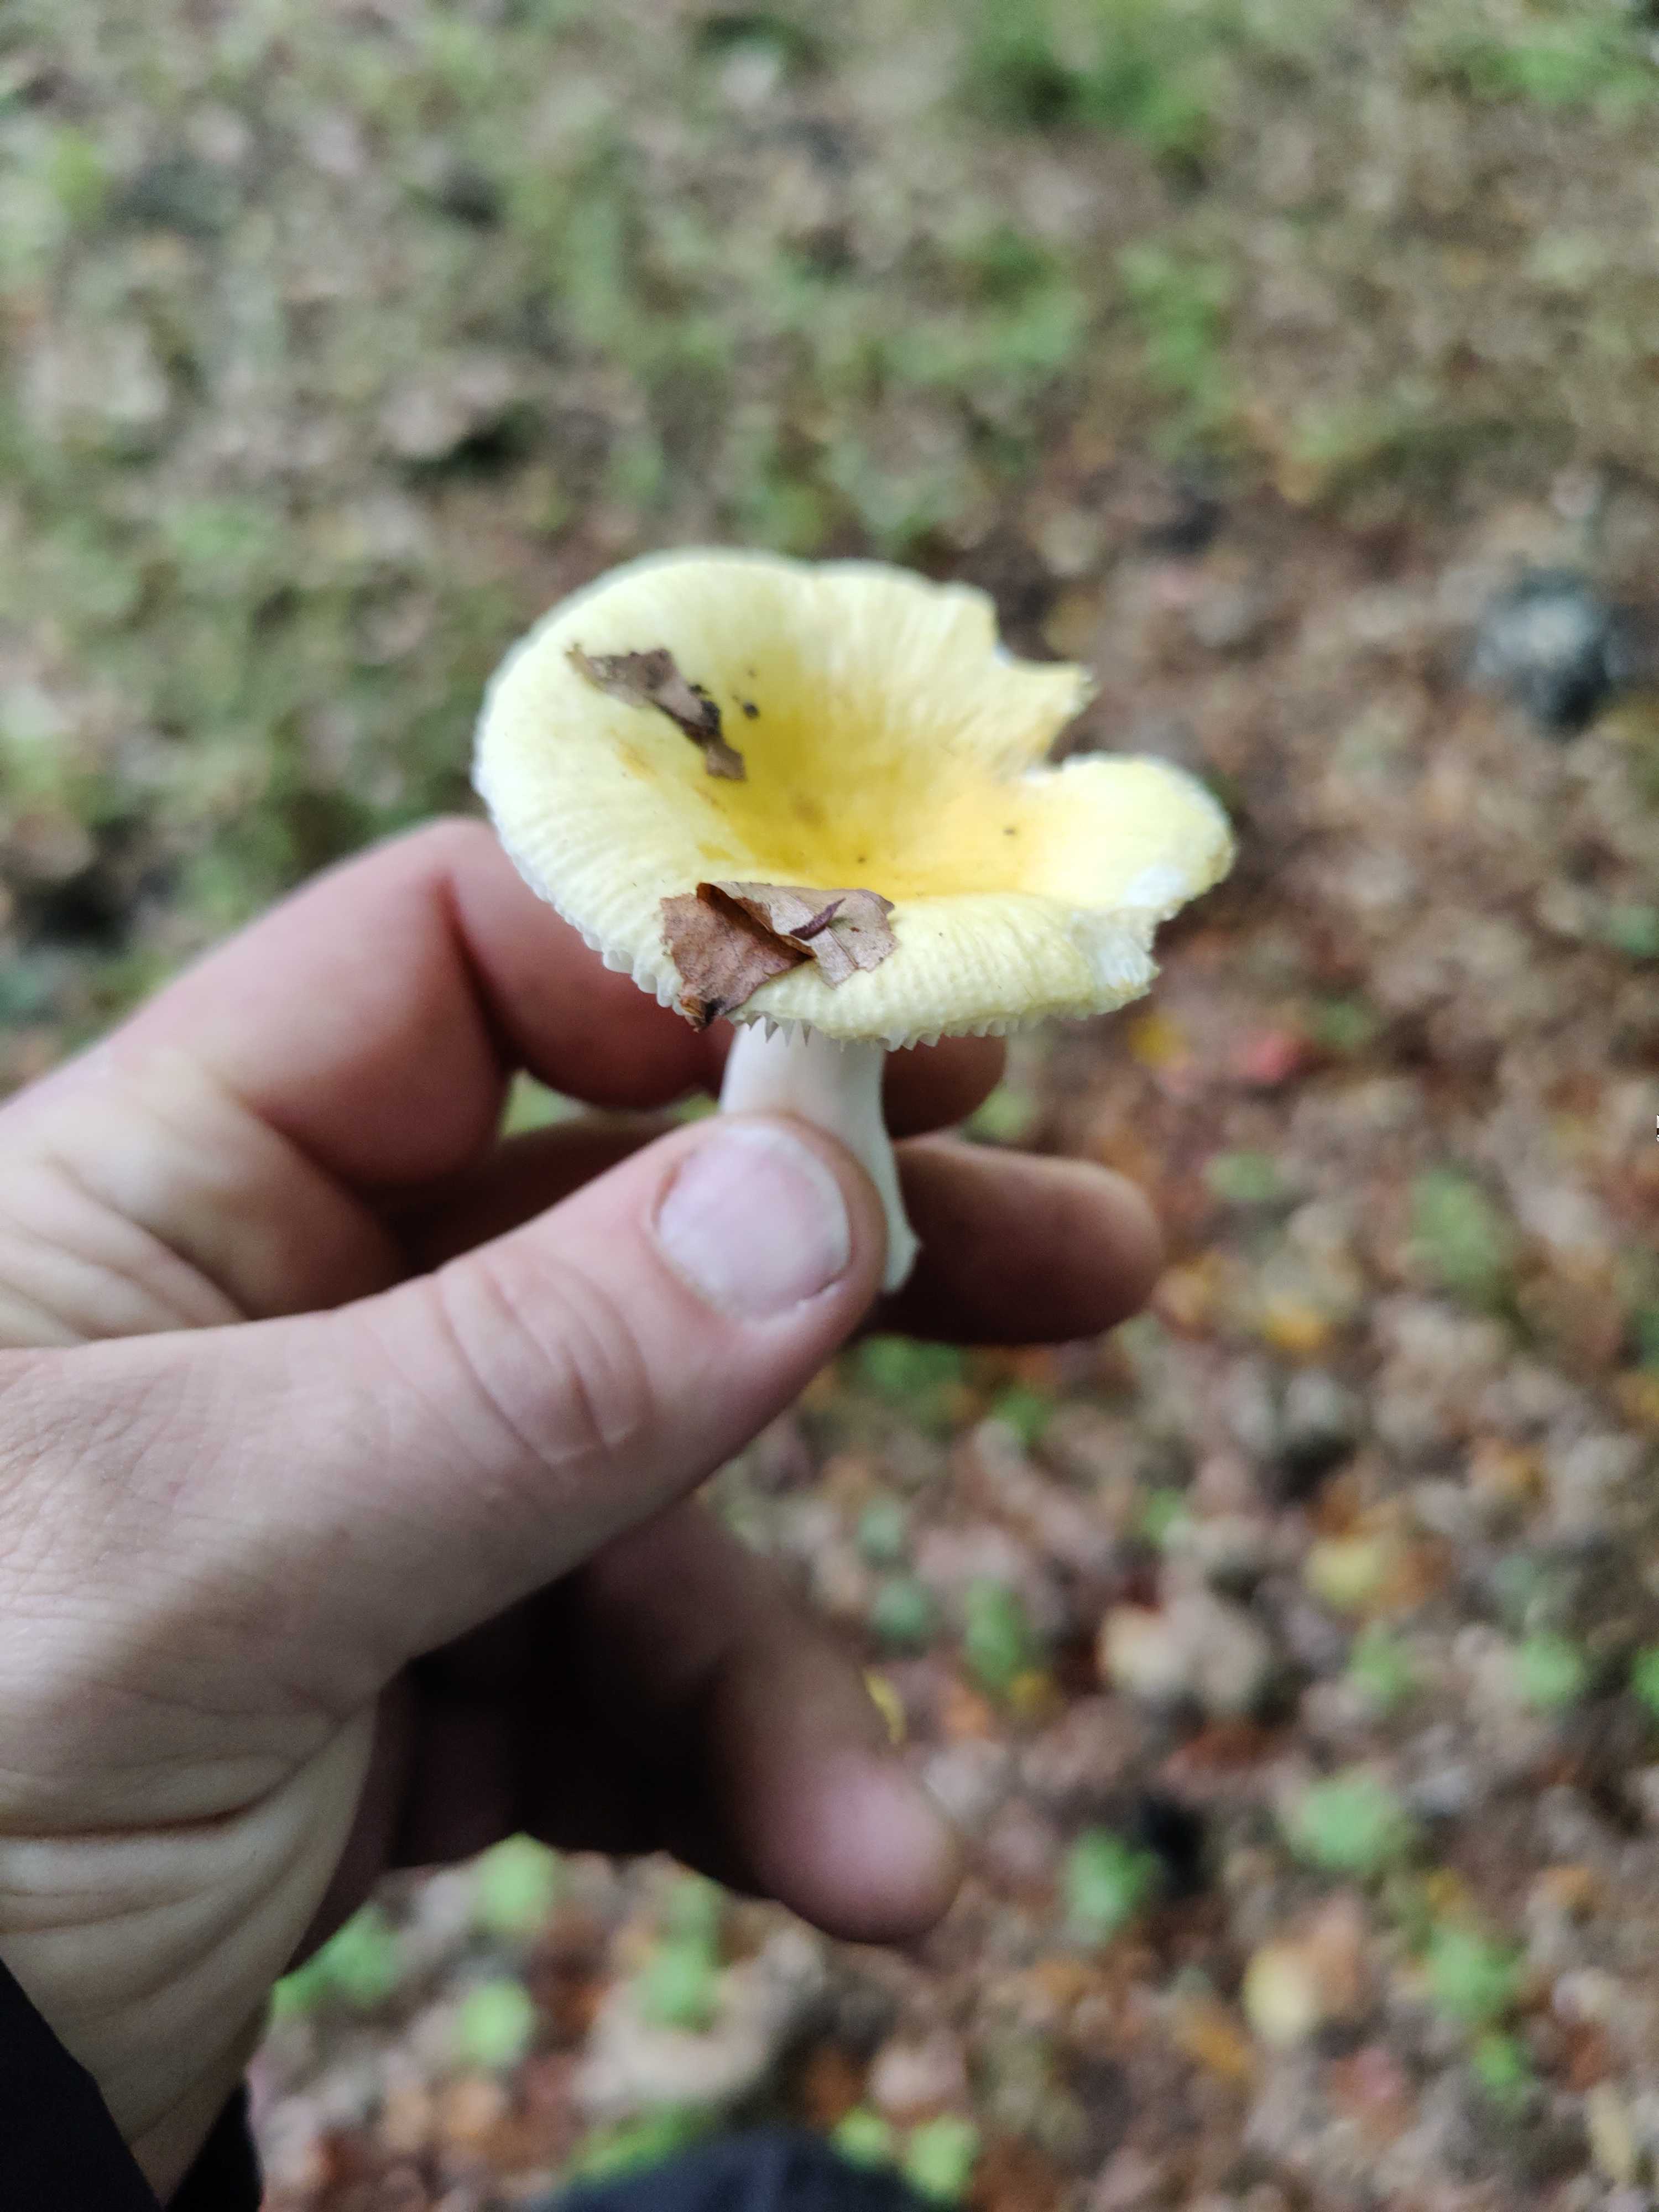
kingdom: Fungi
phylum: Basidiomycota
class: Agaricomycetes
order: Russulales
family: Russulaceae
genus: Russula
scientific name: Russula
